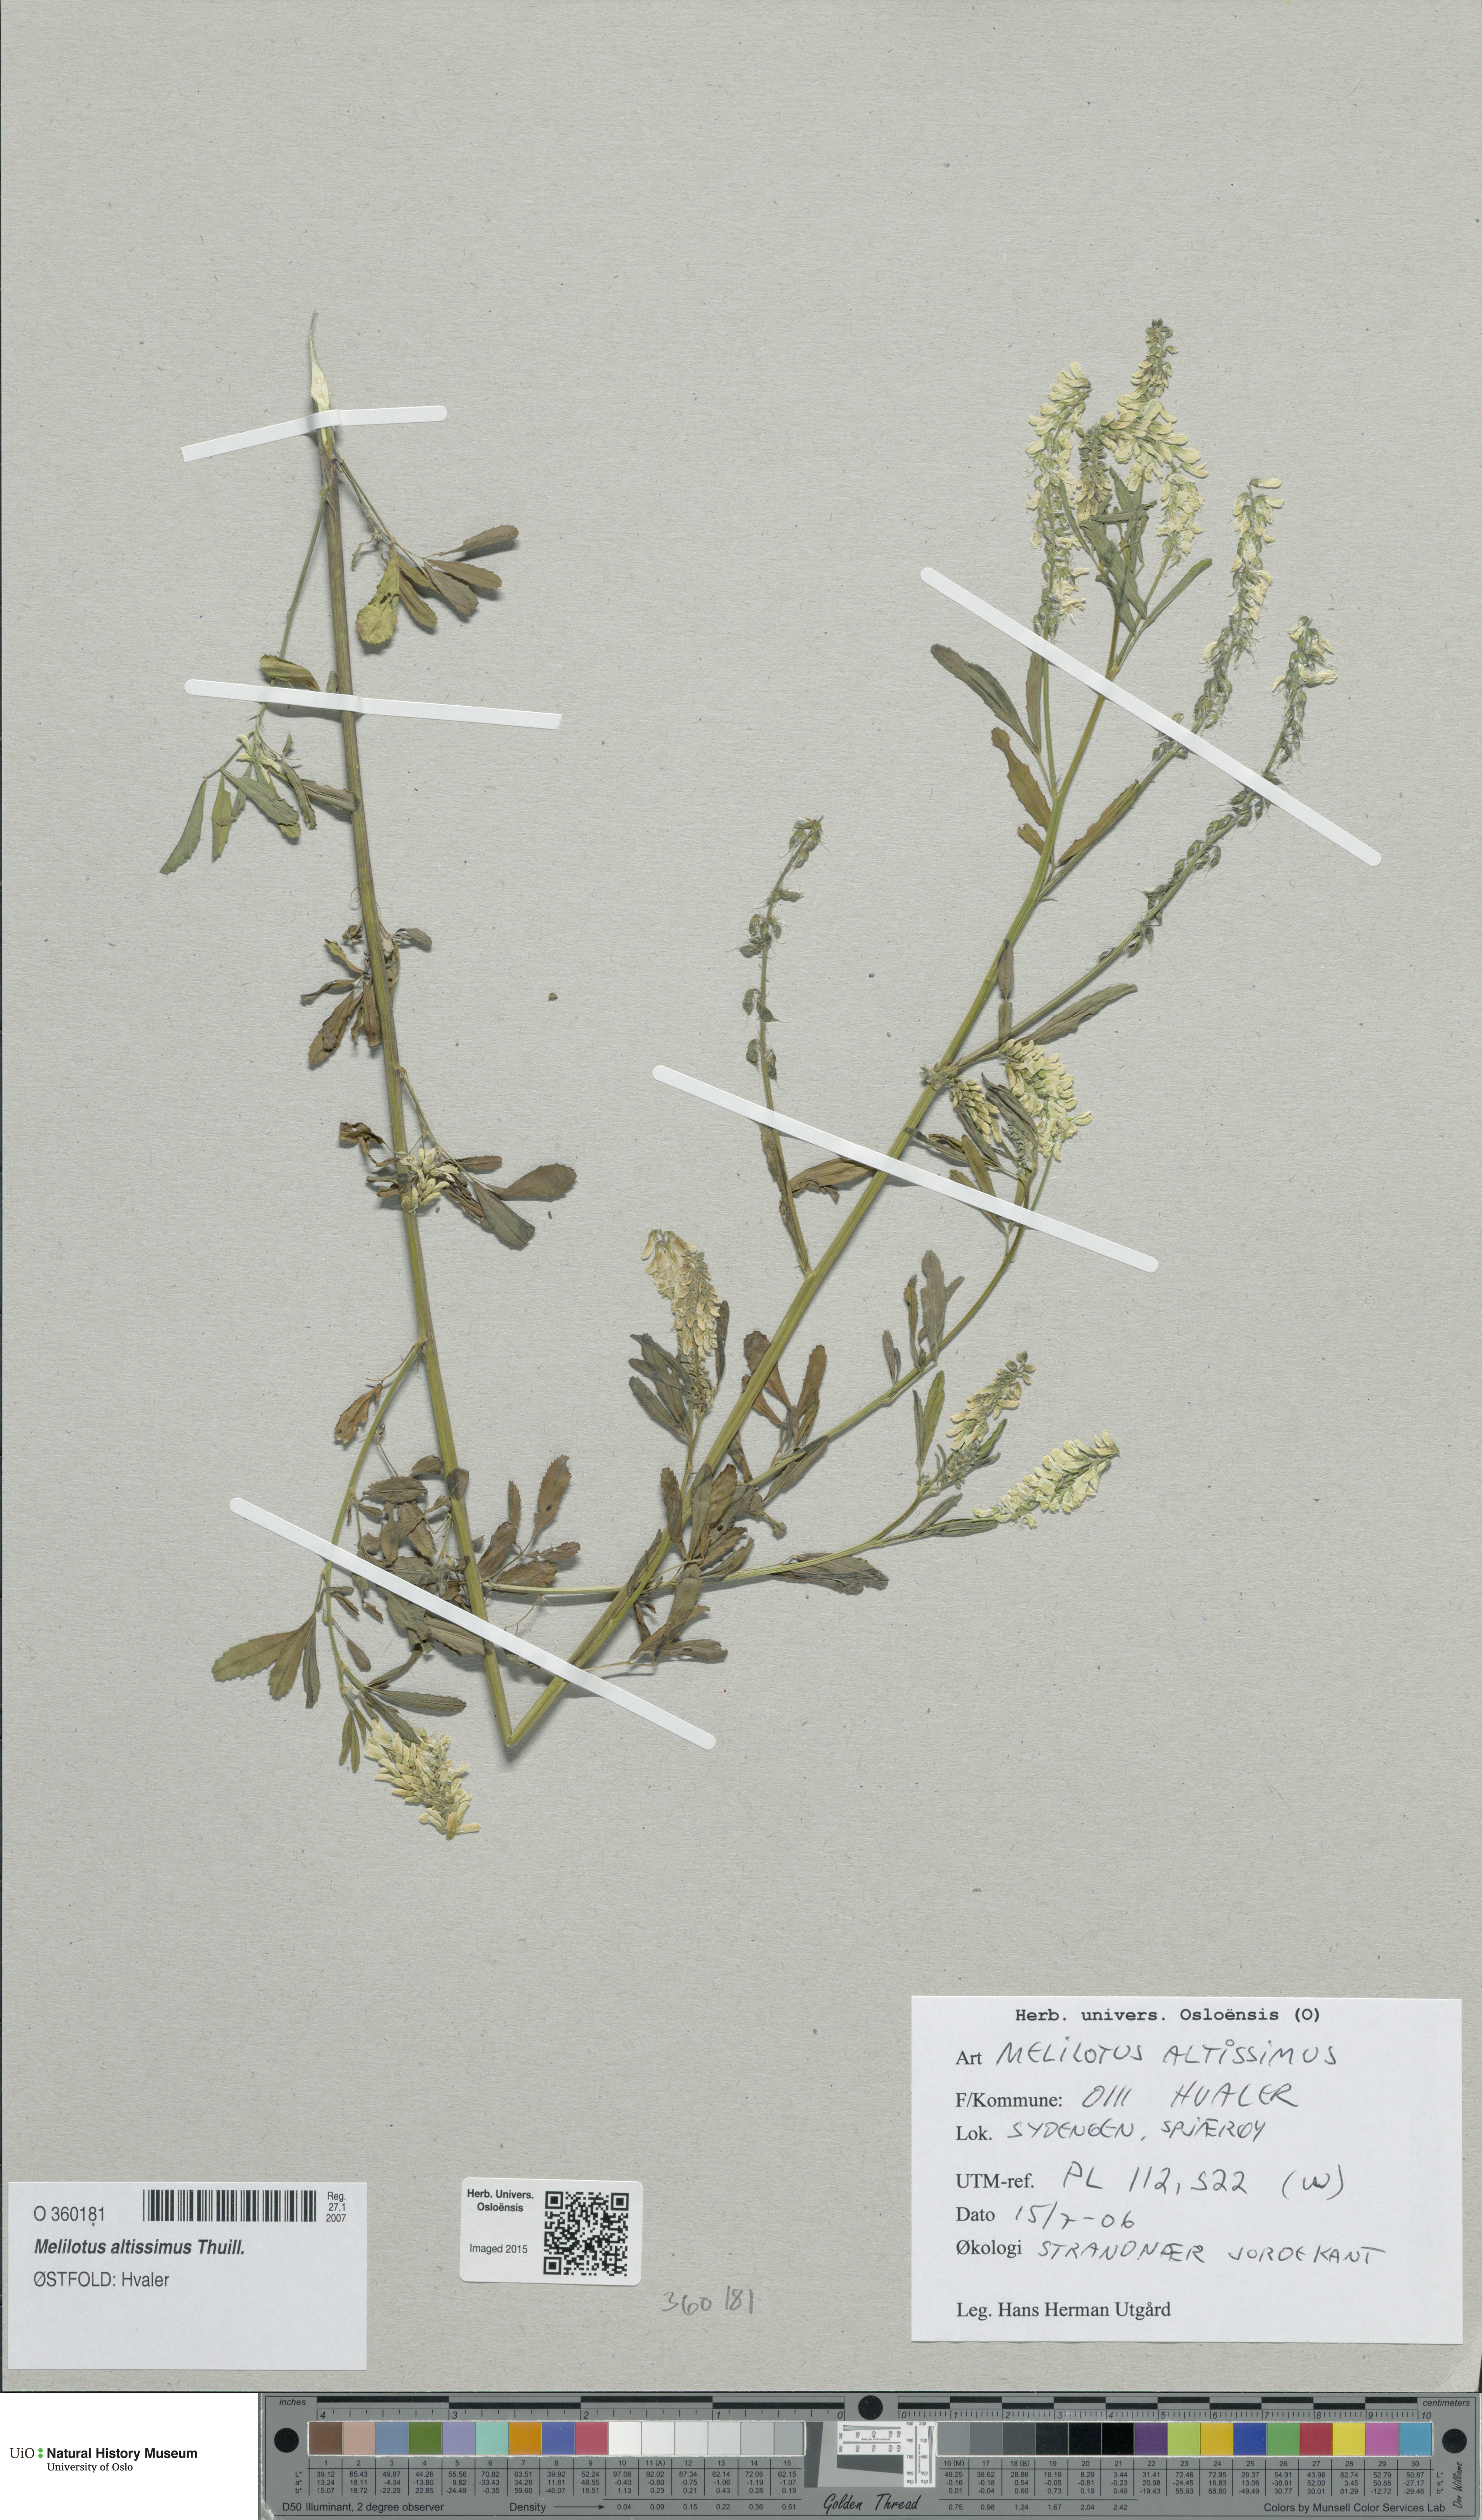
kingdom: Plantae
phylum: Tracheophyta
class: Magnoliopsida
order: Fabales
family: Fabaceae
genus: Melilotus
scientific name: Melilotus altissimus
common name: Tall melilot
